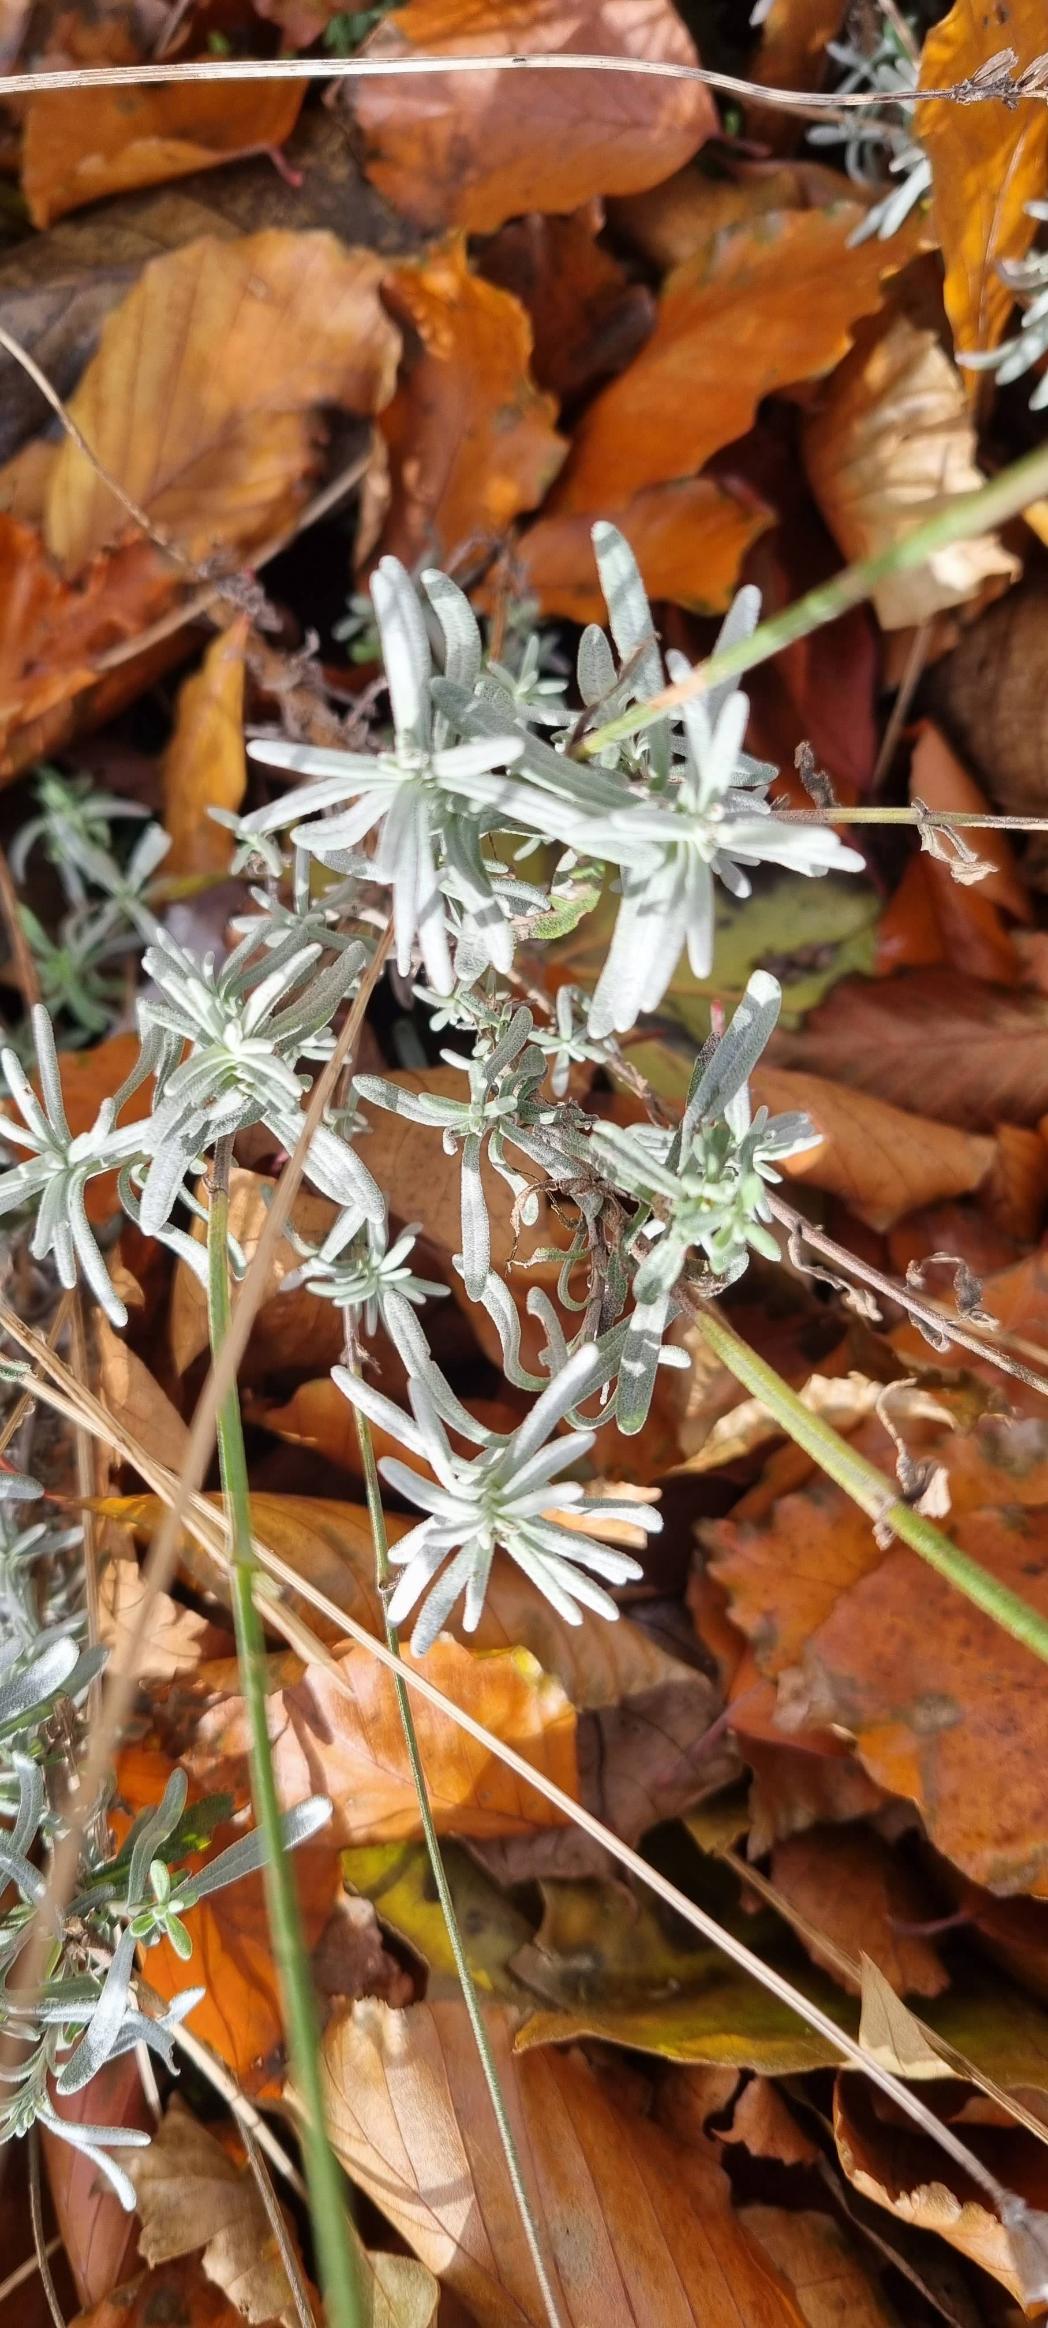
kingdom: Plantae
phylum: Tracheophyta
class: Magnoliopsida
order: Lamiales
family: Lamiaceae
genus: Lavandula
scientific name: Lavandula angustifolia
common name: Ægte lavendel
